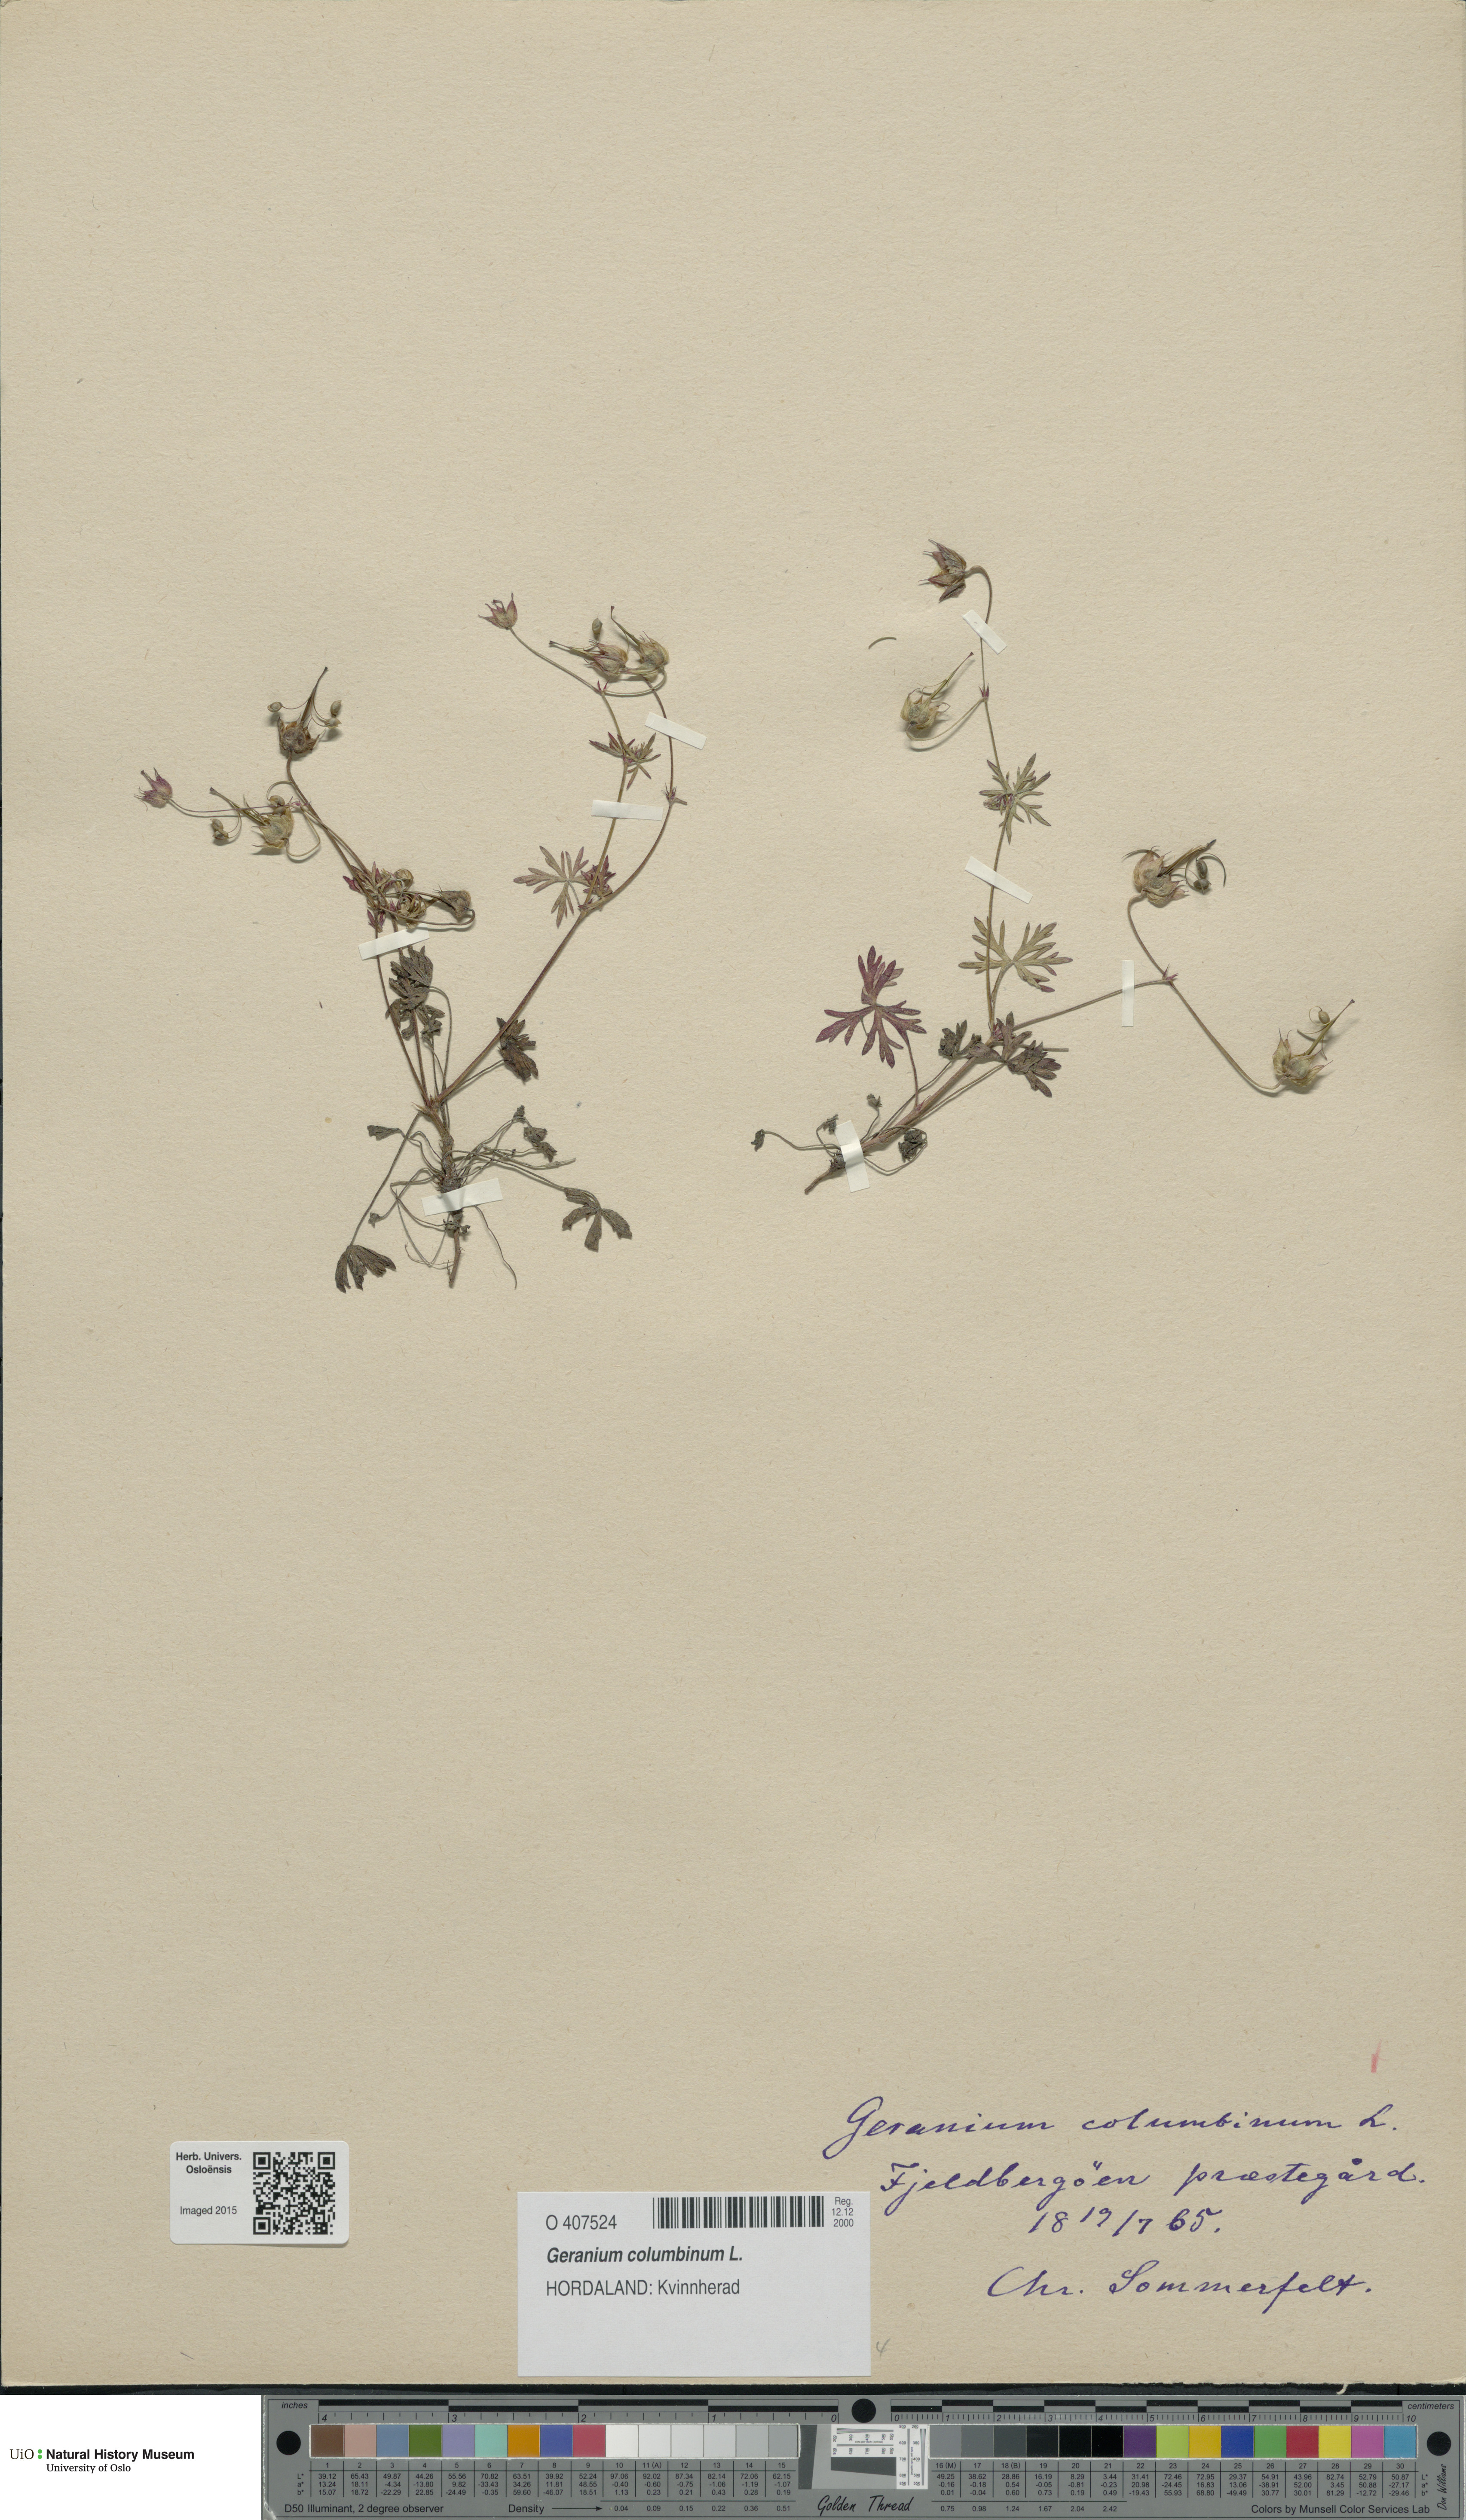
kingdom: Plantae
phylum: Tracheophyta
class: Magnoliopsida
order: Geraniales
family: Geraniaceae
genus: Geranium
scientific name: Geranium columbinum
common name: Long-stalked crane's-bill
